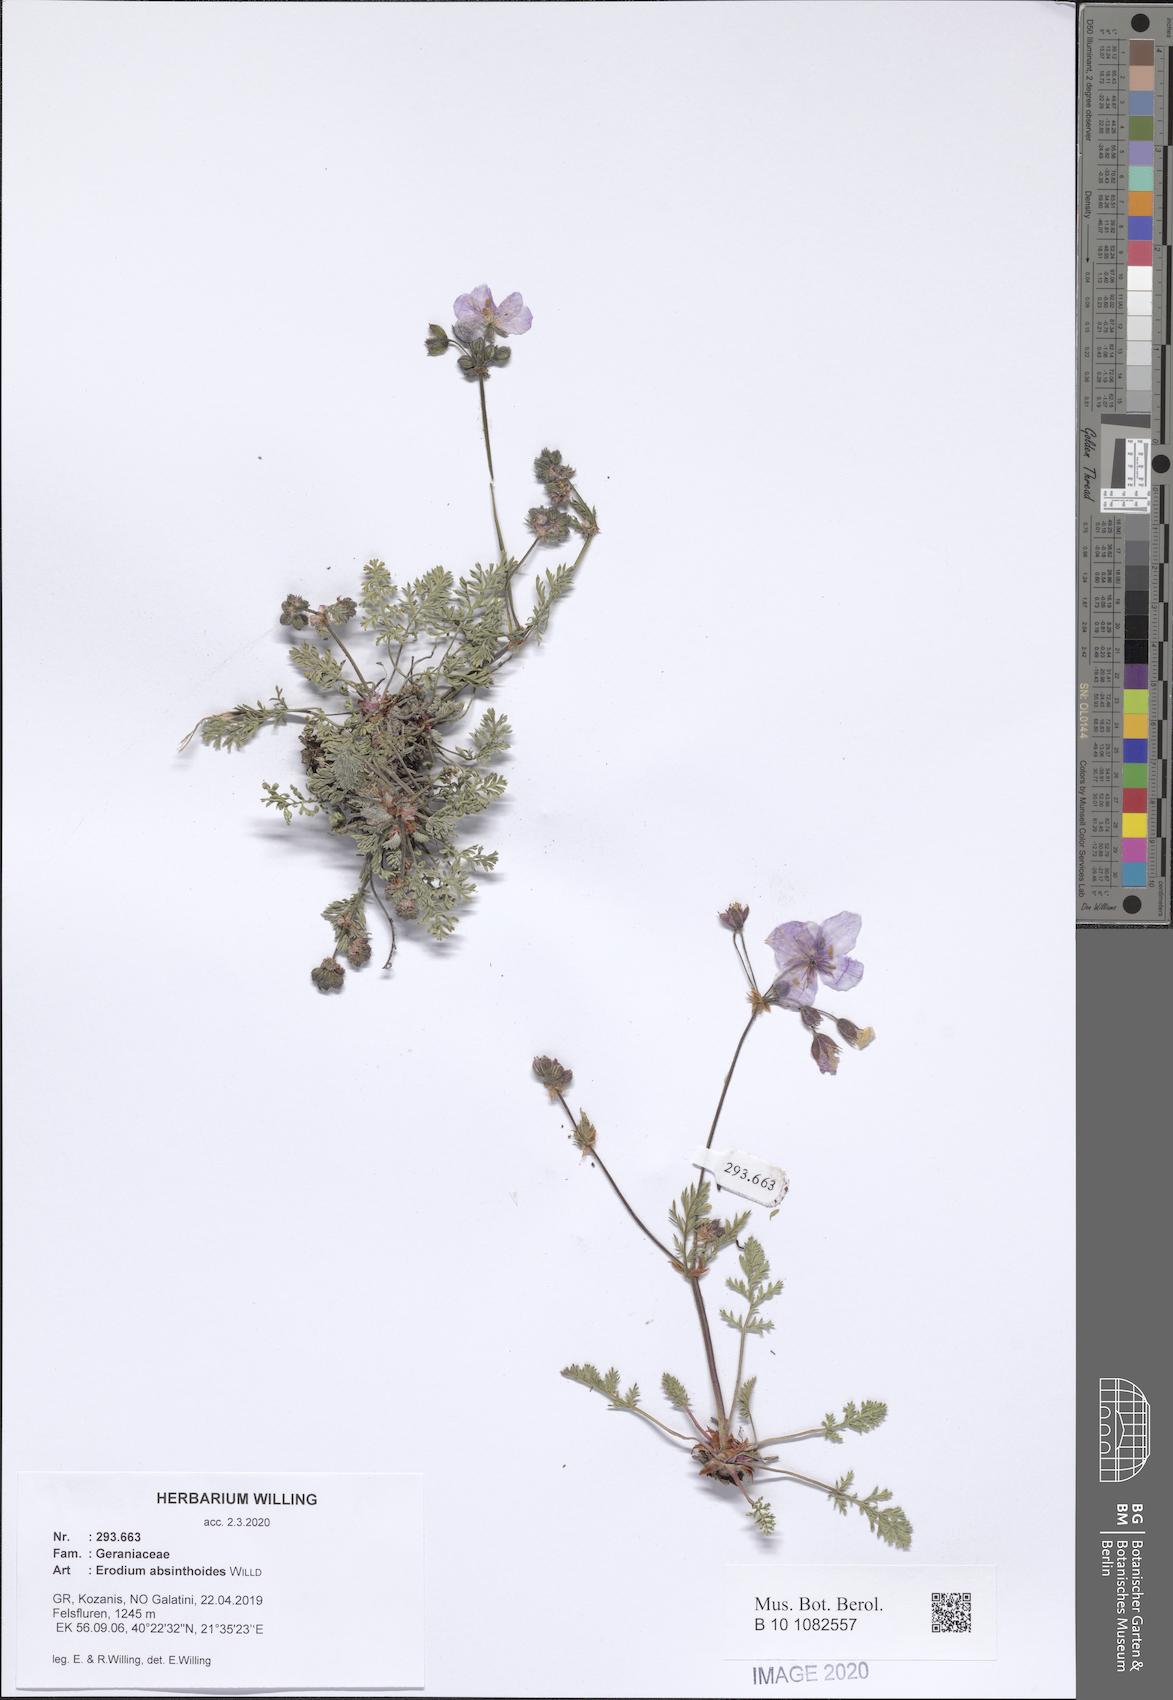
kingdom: Plantae
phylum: Tracheophyta
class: Magnoliopsida
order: Geraniales
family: Geraniaceae
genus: Erodium
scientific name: Erodium absinthoides
